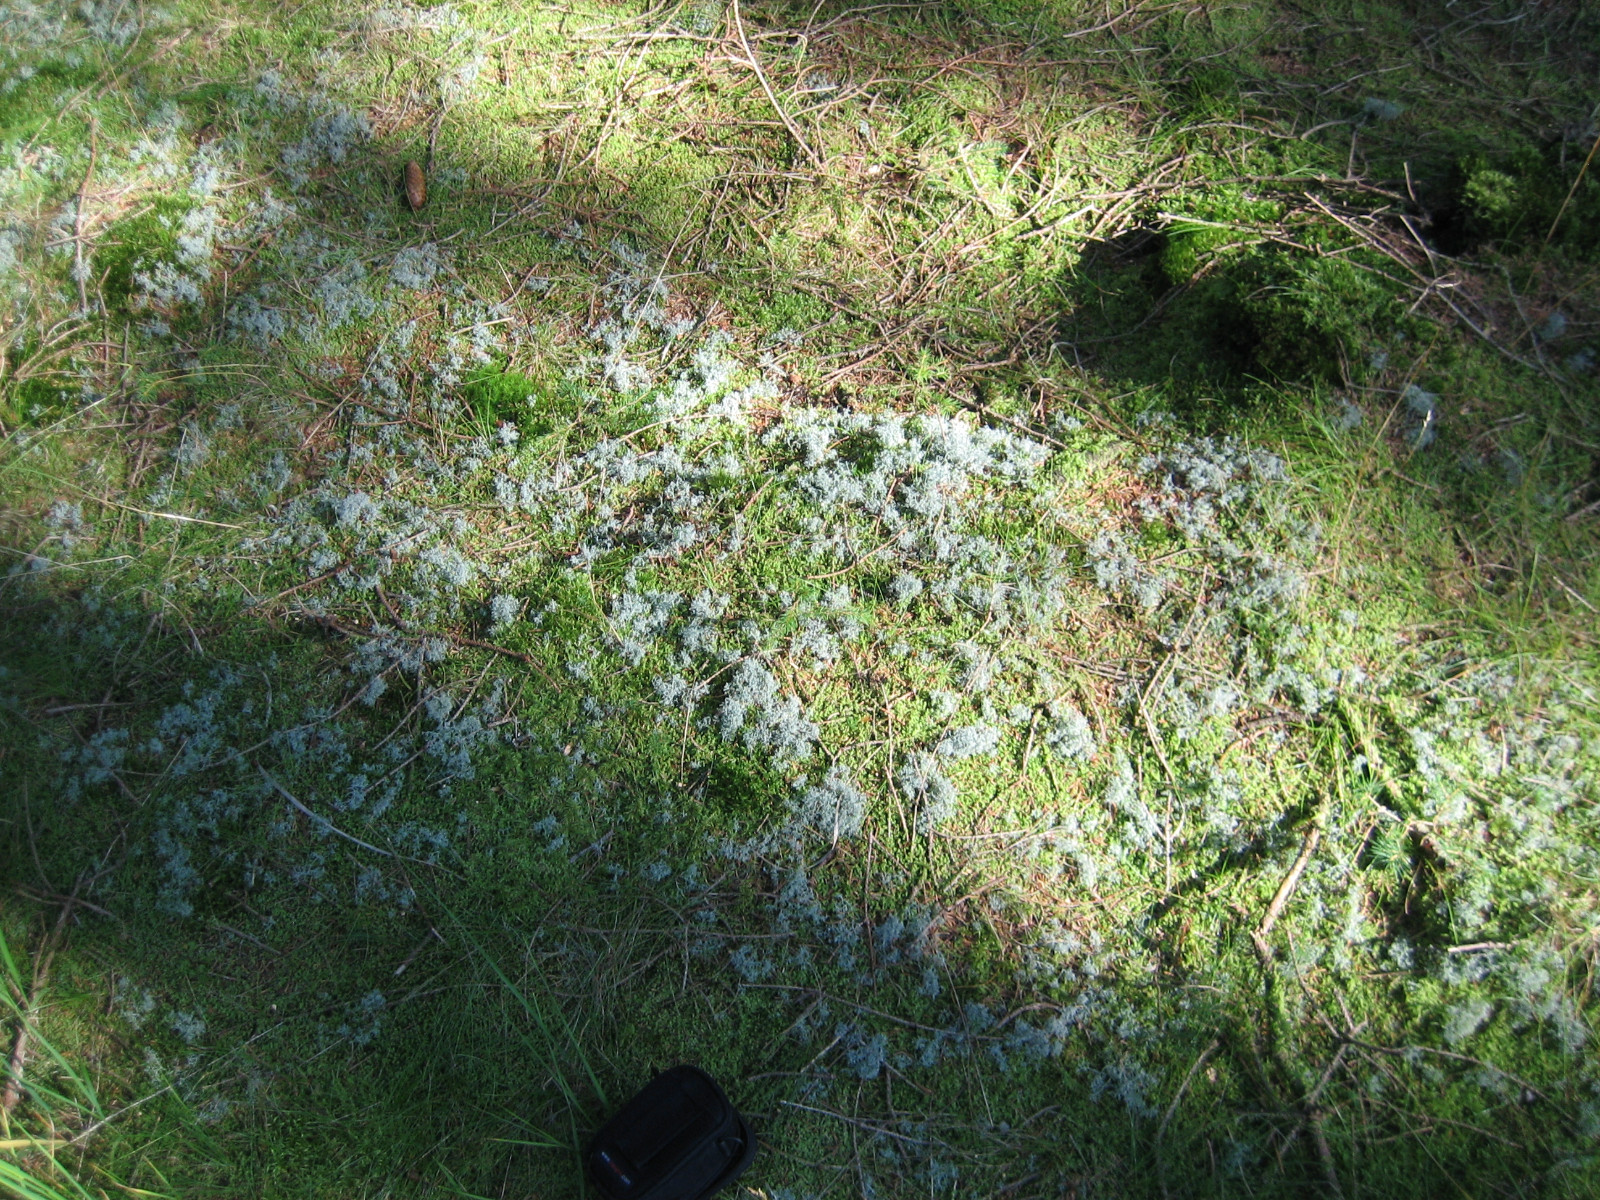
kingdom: Fungi
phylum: Ascomycota
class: Lecanoromycetes
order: Lecanorales
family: Cladoniaceae
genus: Cladonia
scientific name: Cladonia portentosa
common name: hede-rensdyrlav
